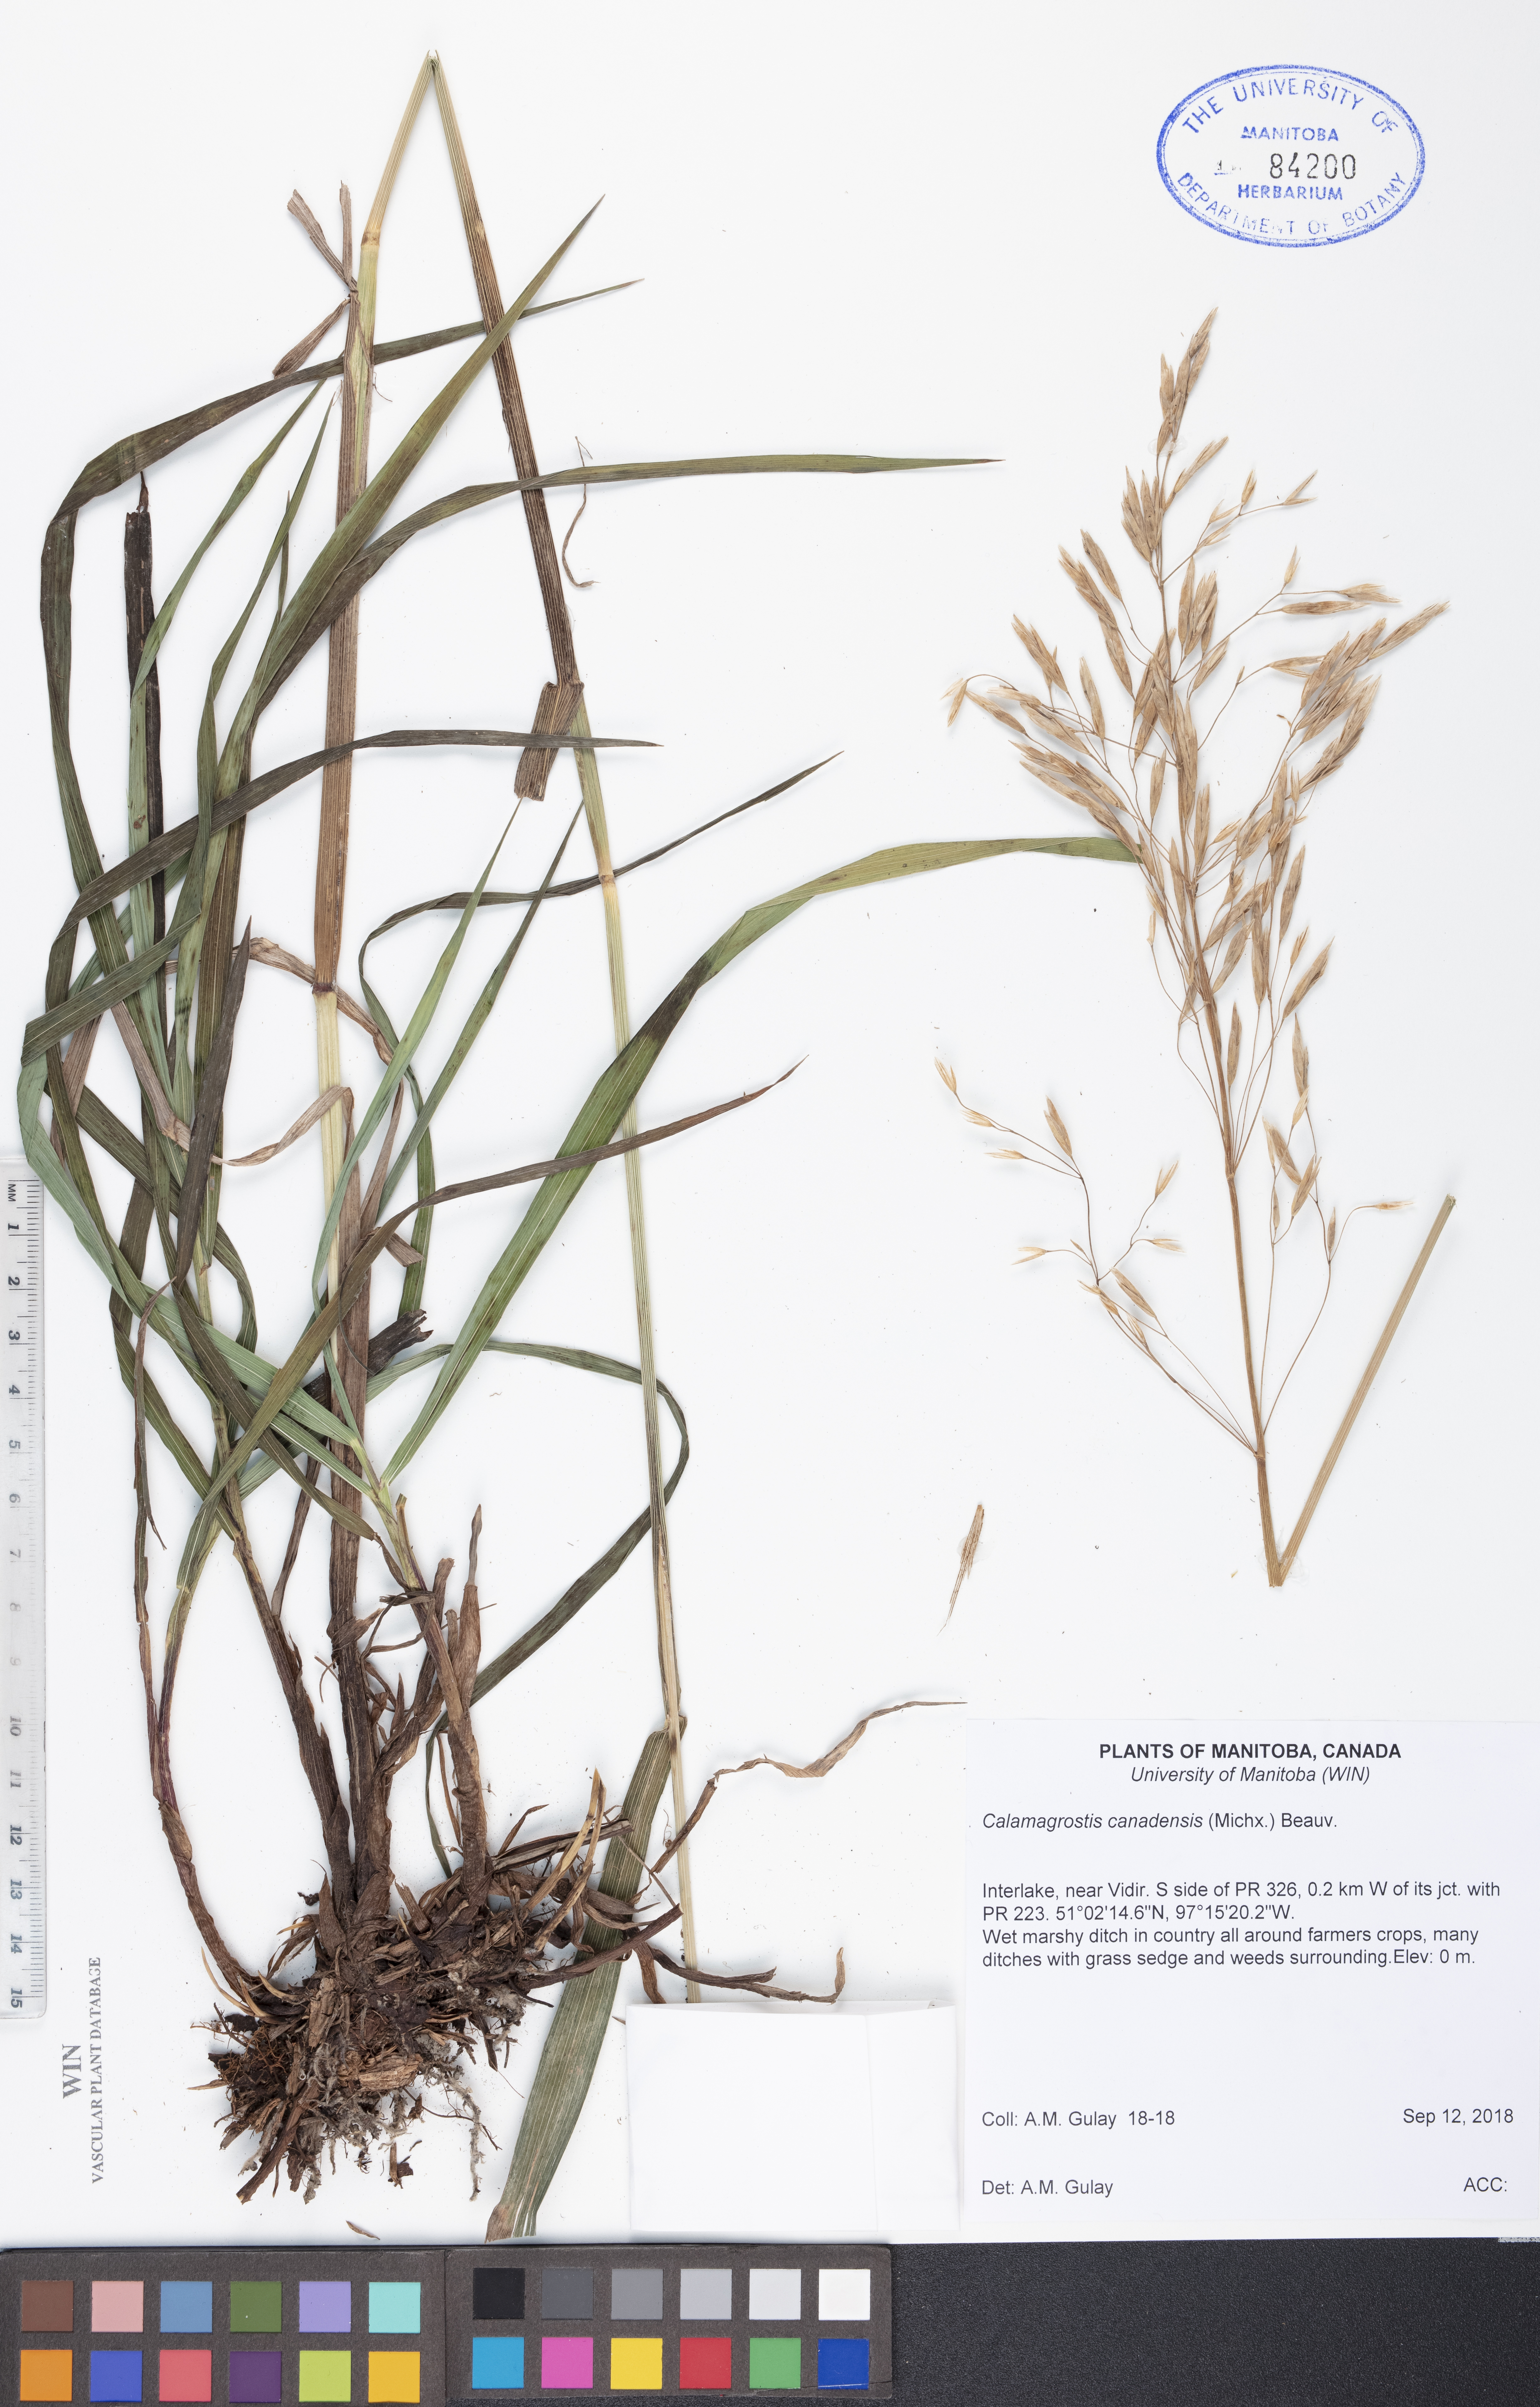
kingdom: Plantae
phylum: Tracheophyta
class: Liliopsida
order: Poales
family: Poaceae
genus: Calamagrostis
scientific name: Calamagrostis canadensis
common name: Canada bluejoint
